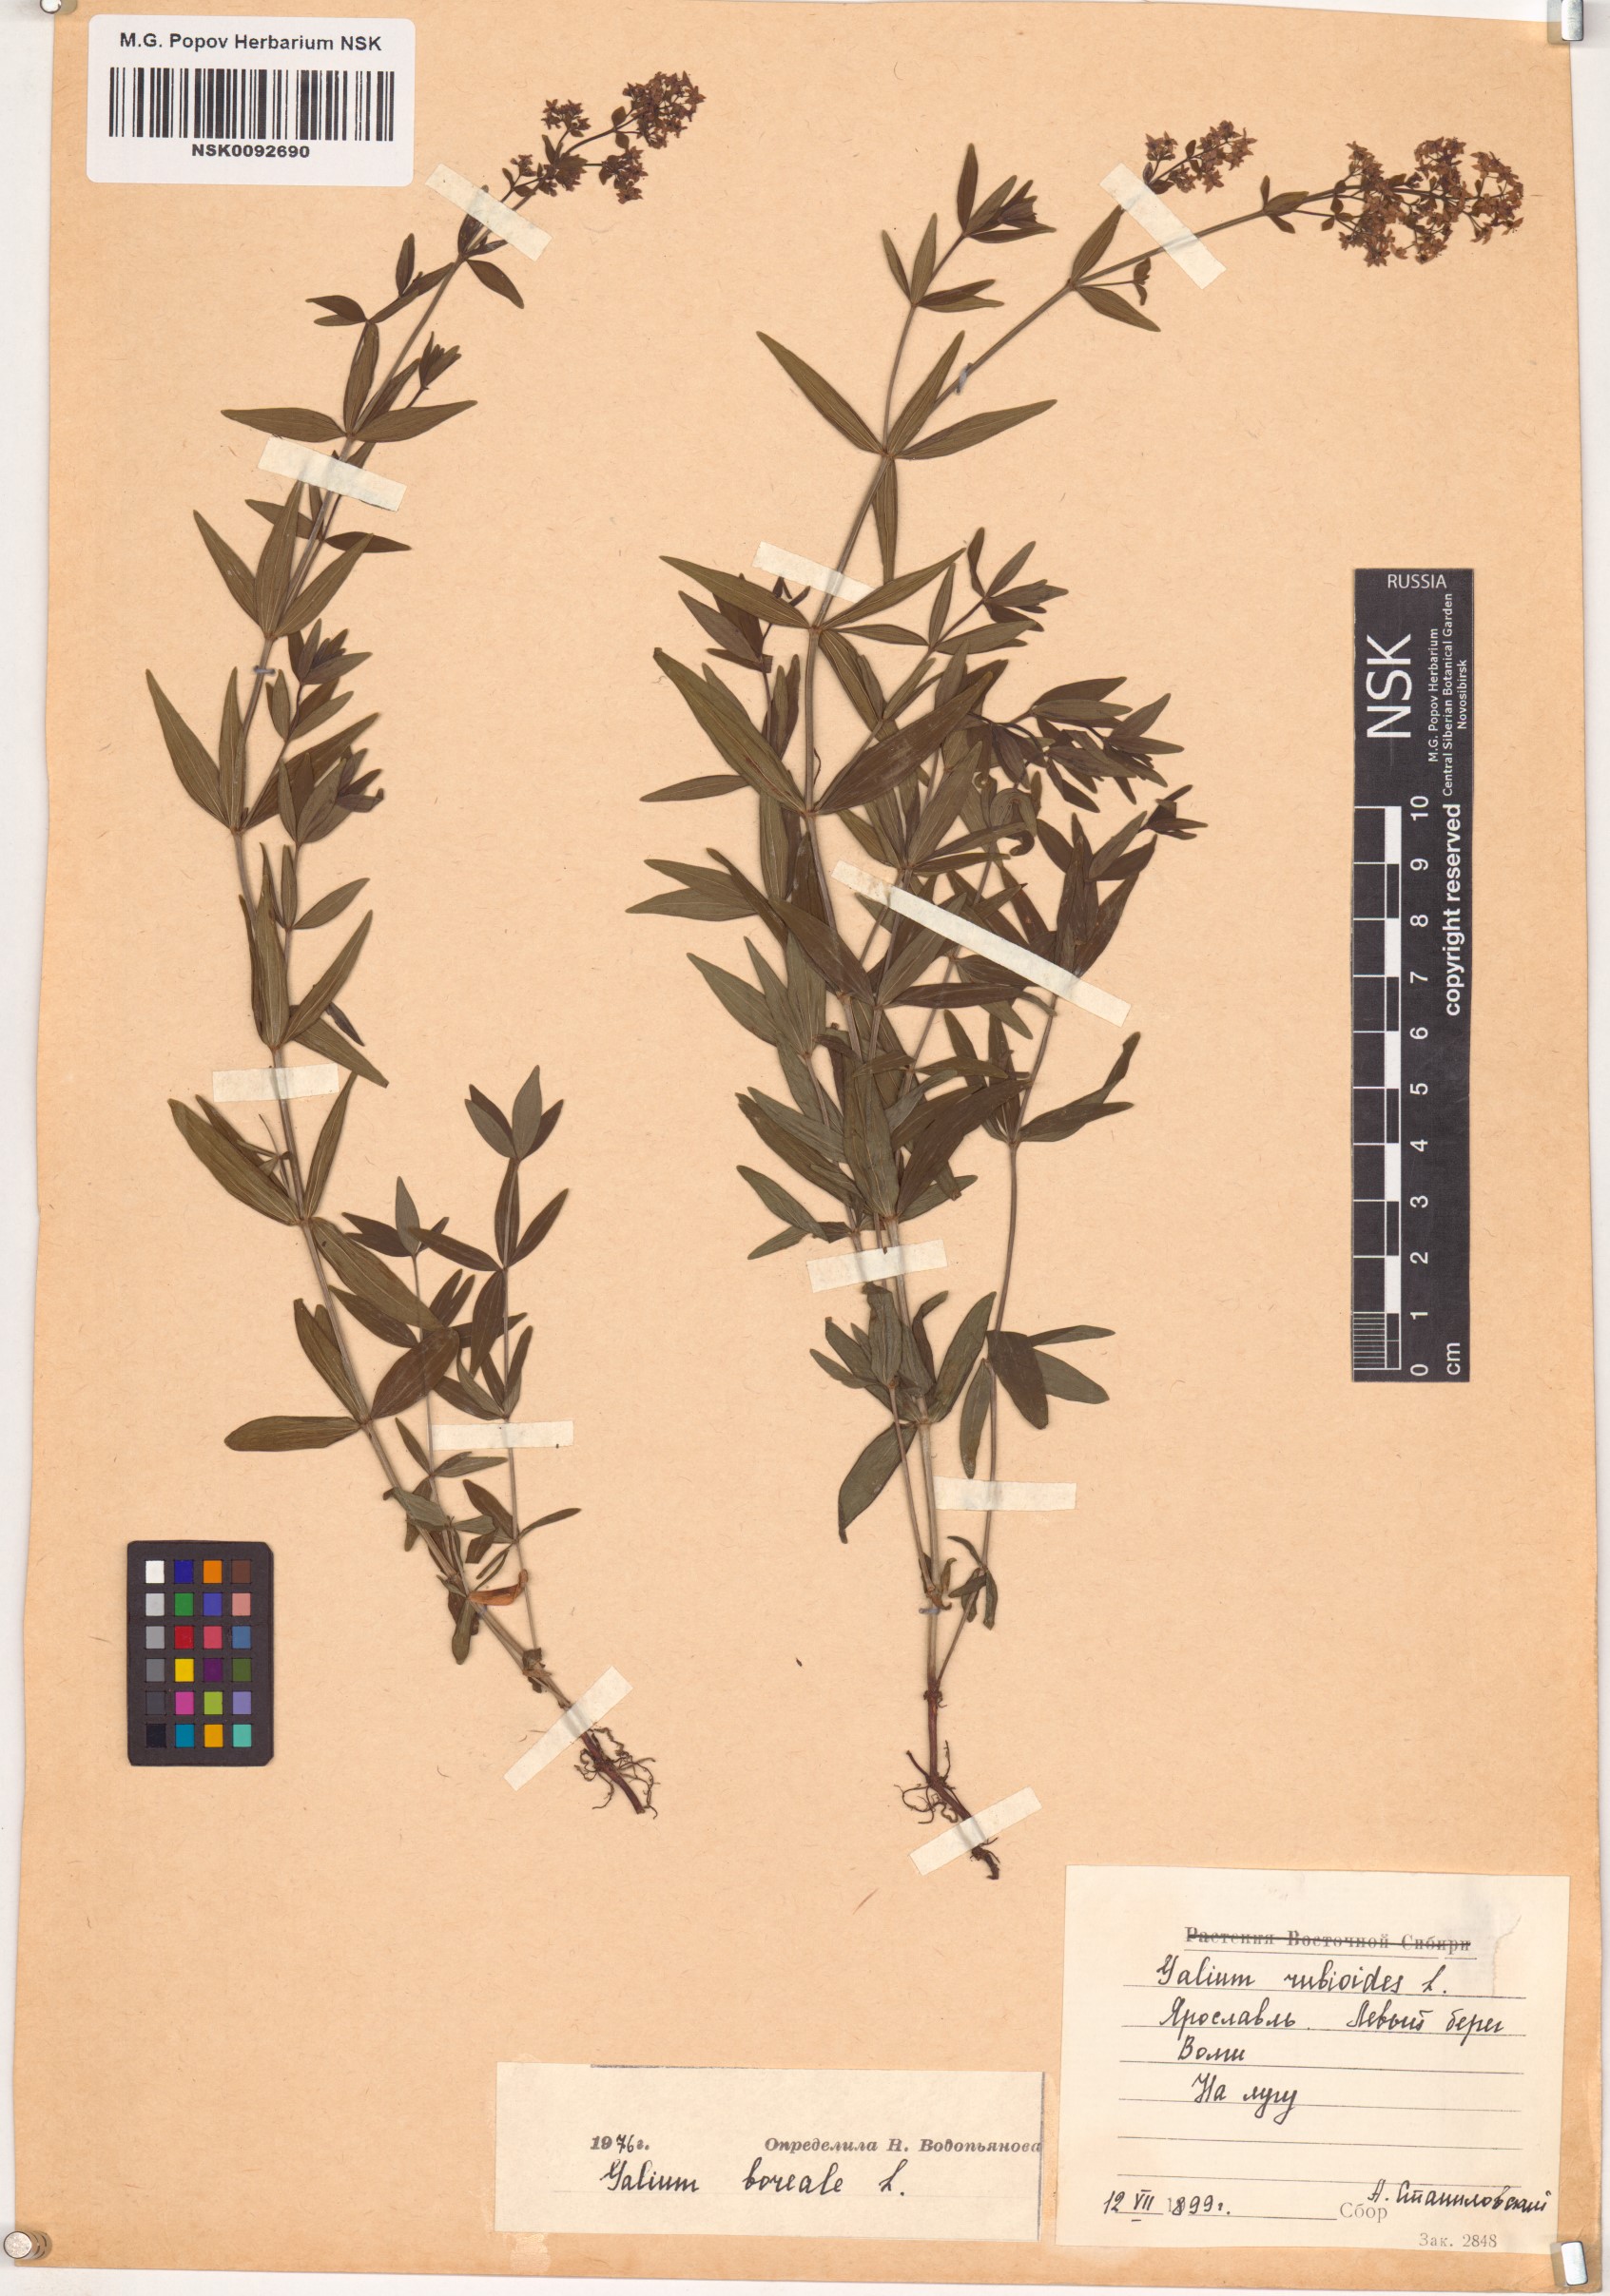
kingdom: Plantae
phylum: Tracheophyta
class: Magnoliopsida
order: Gentianales
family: Rubiaceae
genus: Galium
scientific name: Galium boreale
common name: Northern bedstraw
